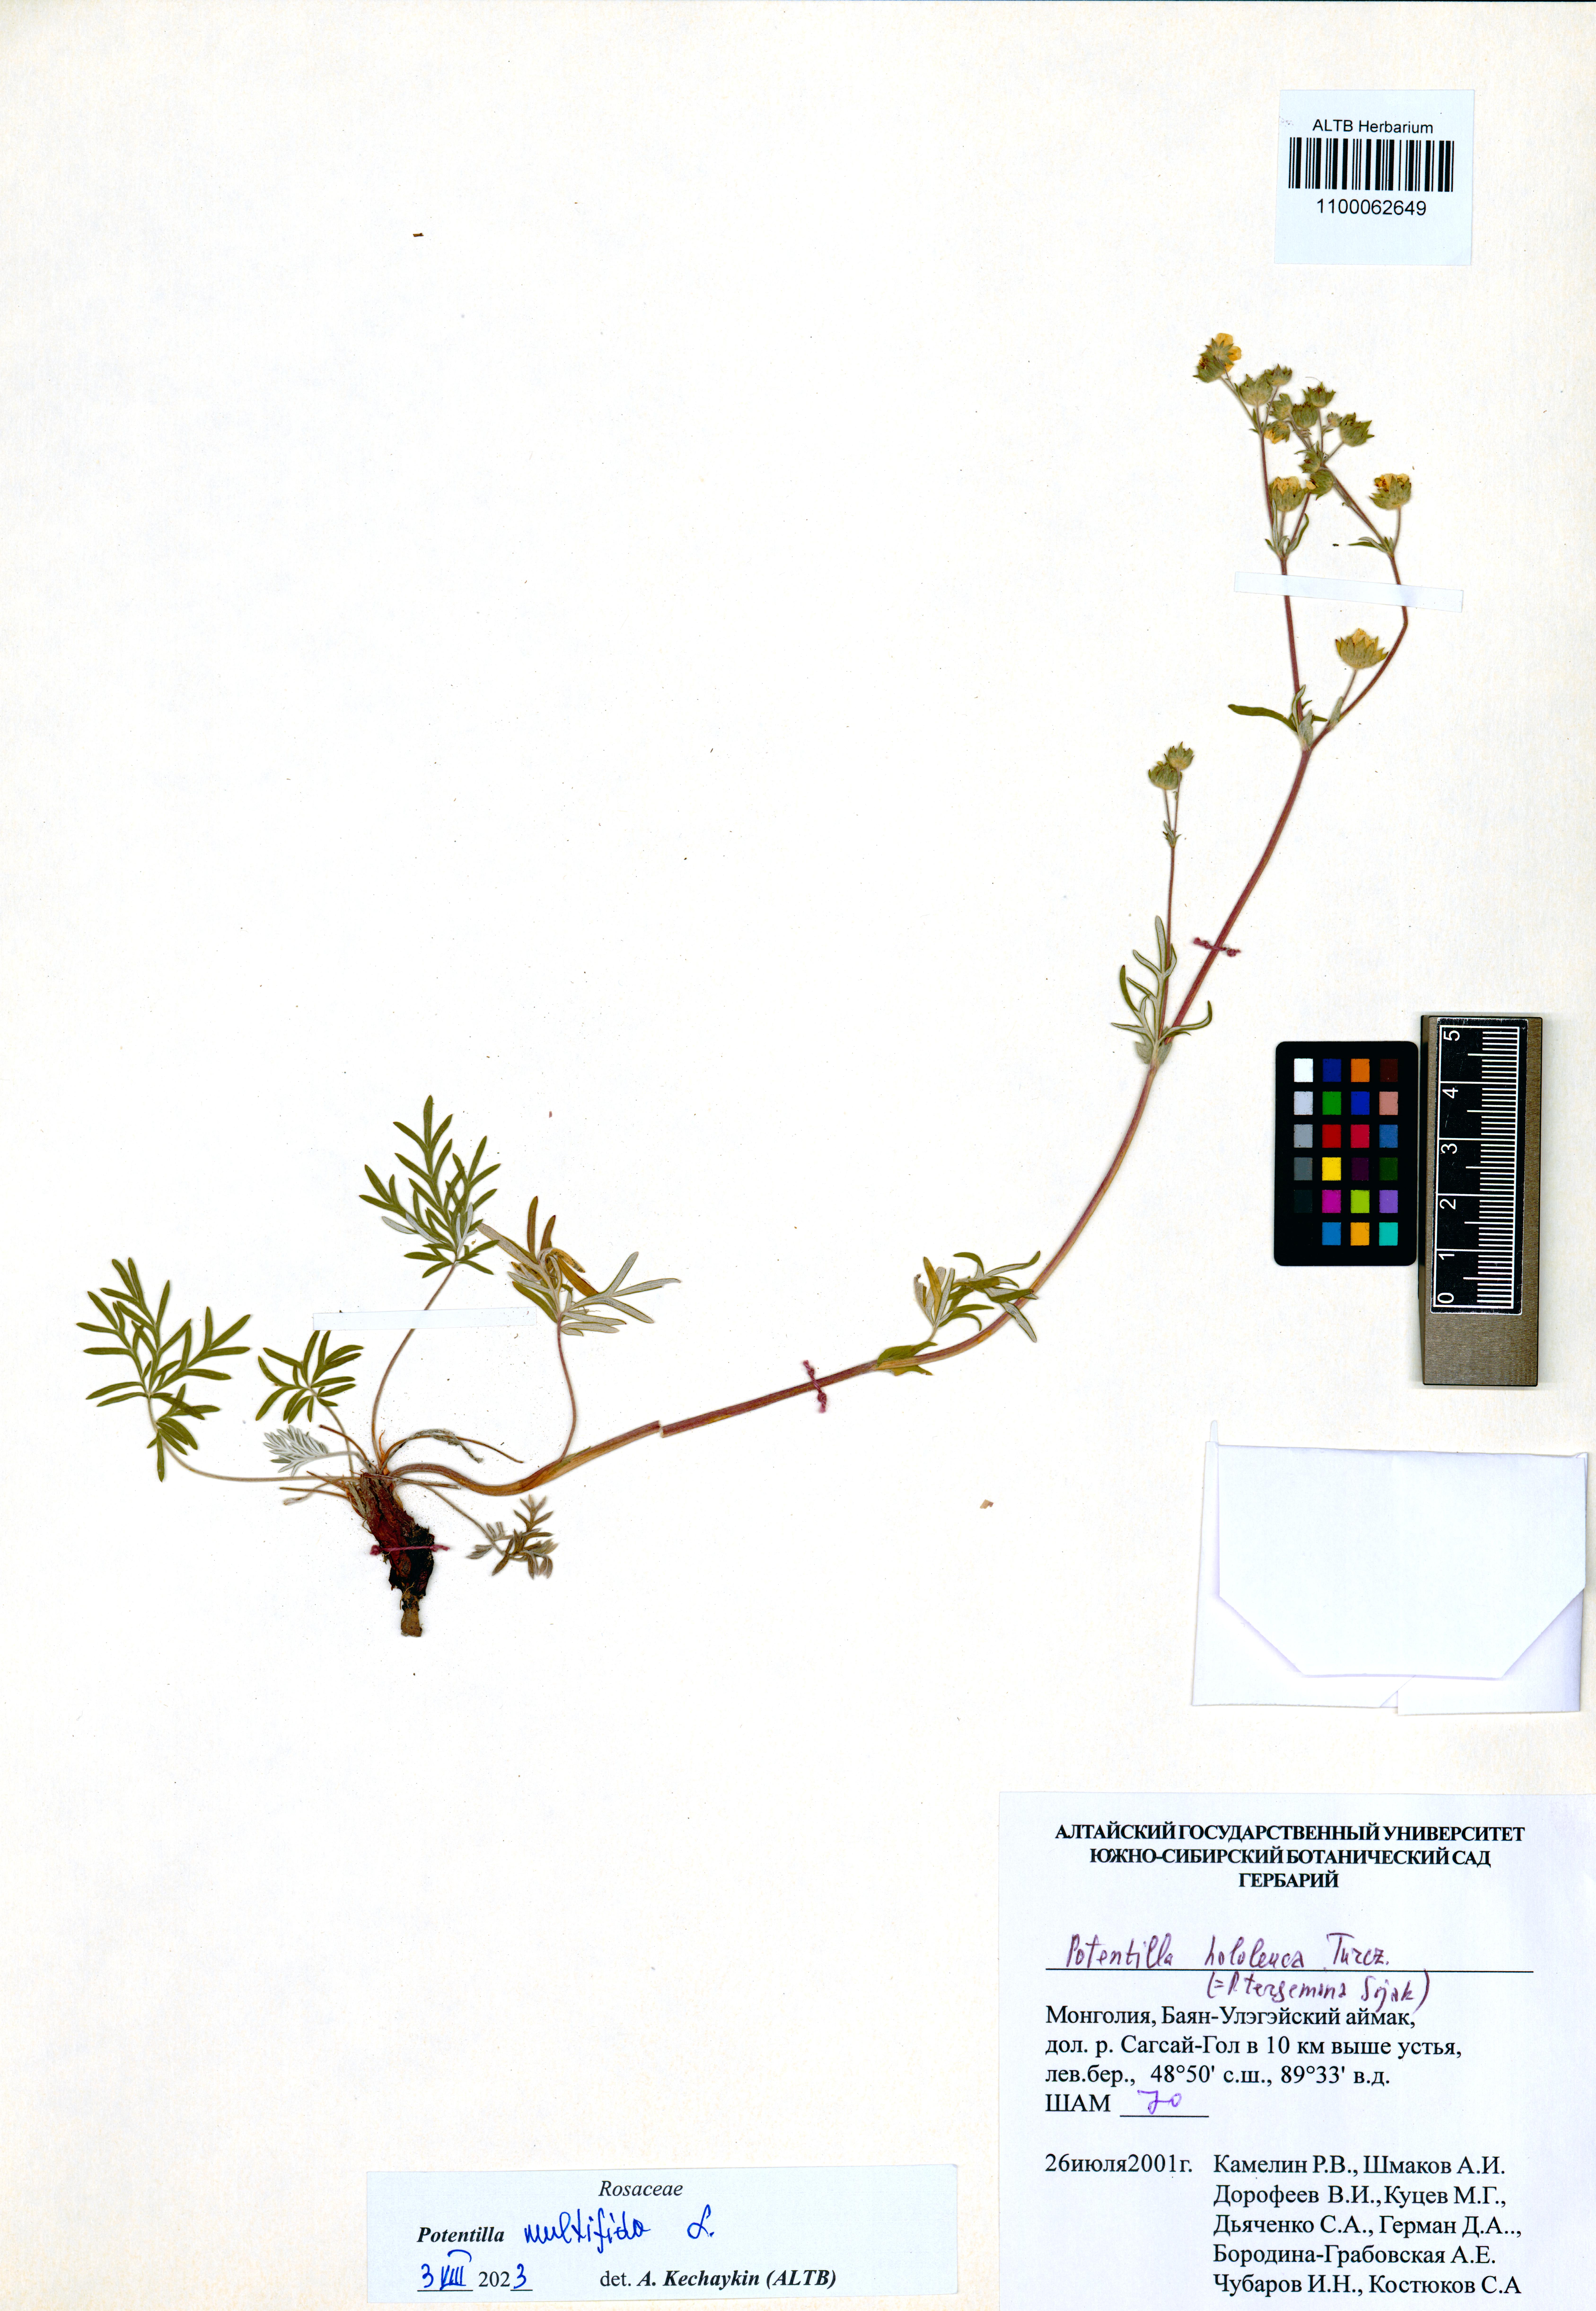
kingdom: Plantae
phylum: Tracheophyta
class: Magnoliopsida
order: Rosales
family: Rosaceae
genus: Potentilla
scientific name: Potentilla multifida
